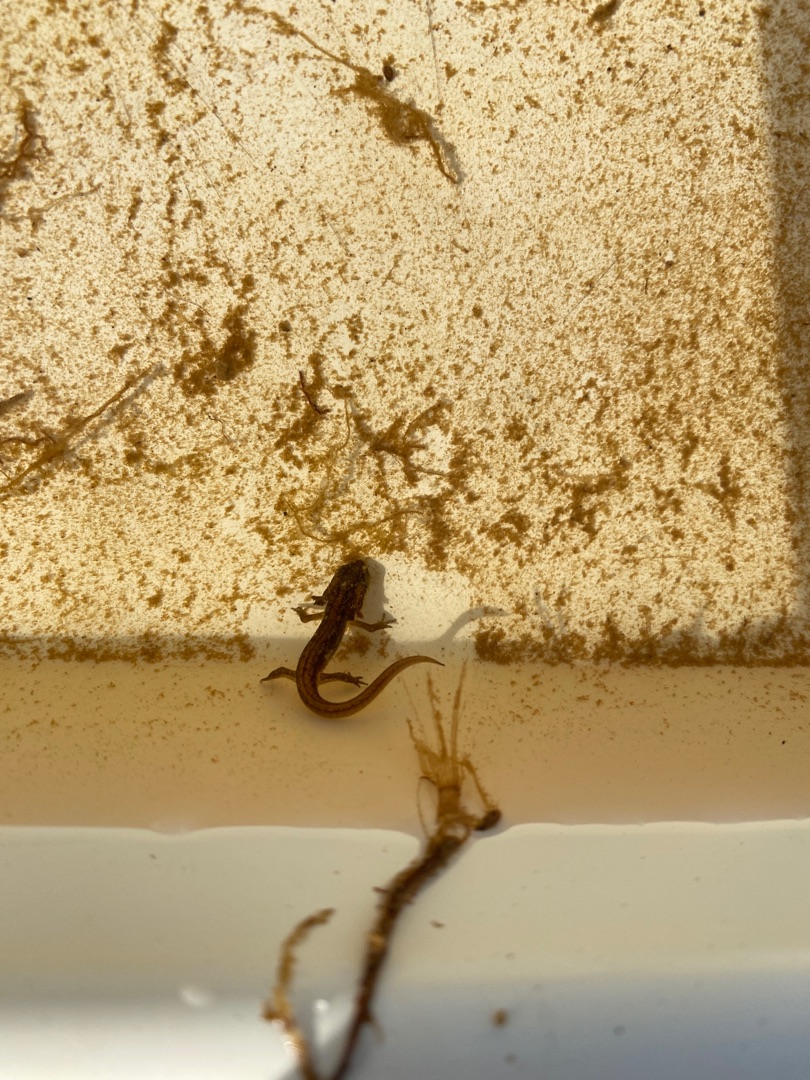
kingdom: Animalia
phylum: Chordata
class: Amphibia
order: Caudata
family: Salamandridae
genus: Lissotriton
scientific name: Lissotriton vulgaris
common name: Lille vandsalamander
